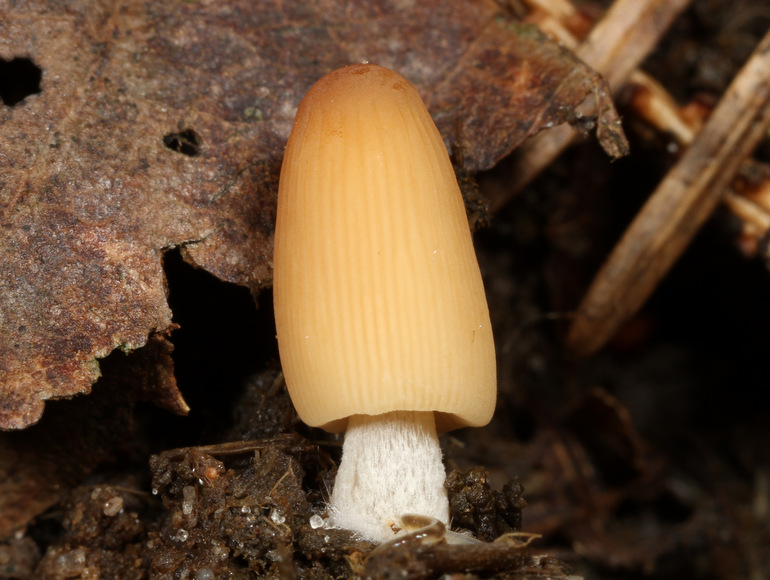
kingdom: Fungi
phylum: Basidiomycota
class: Agaricomycetes
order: Agaricales
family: Psathyrellaceae
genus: Parasola
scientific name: Parasola misera
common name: lillebitte hjulhat
